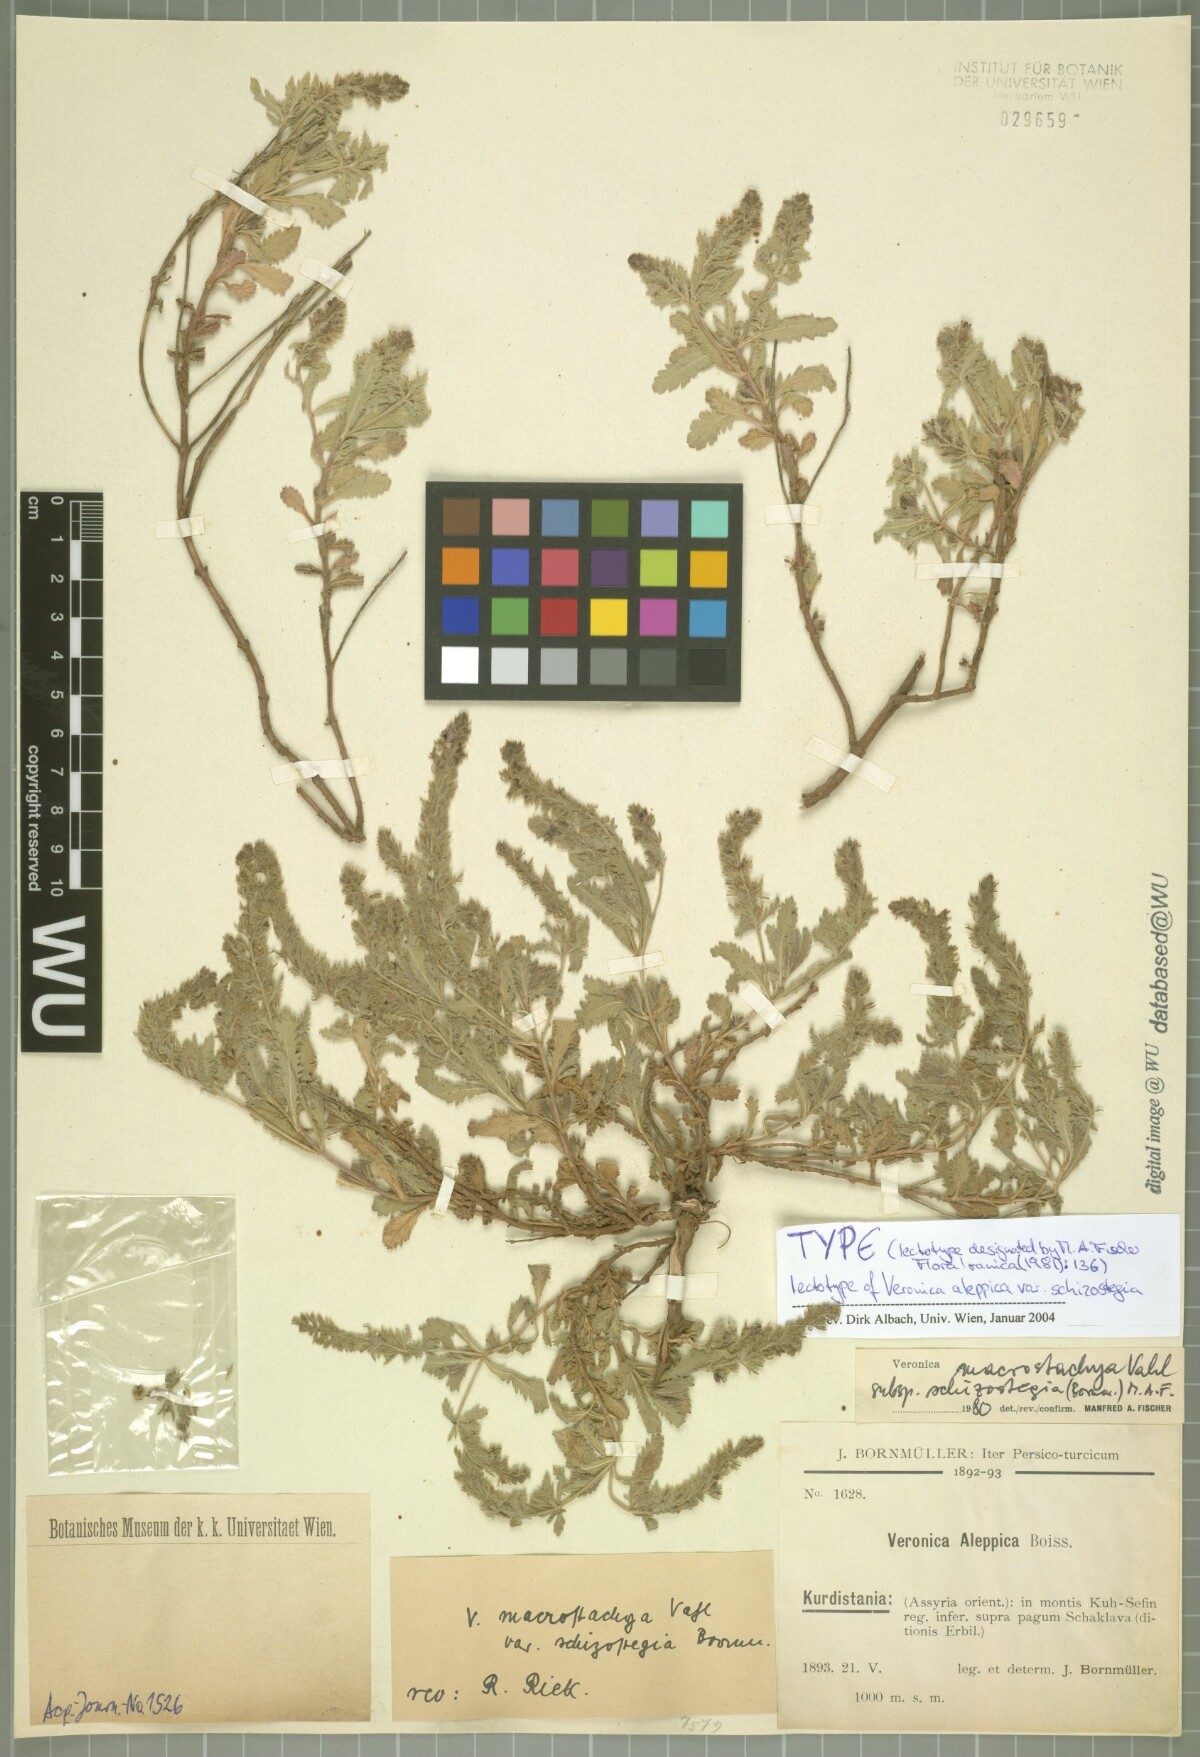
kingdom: Plantae
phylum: Tracheophyta
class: Magnoliopsida
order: Lamiales
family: Plantaginaceae
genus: Veronica
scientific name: Veronica macrostachya
